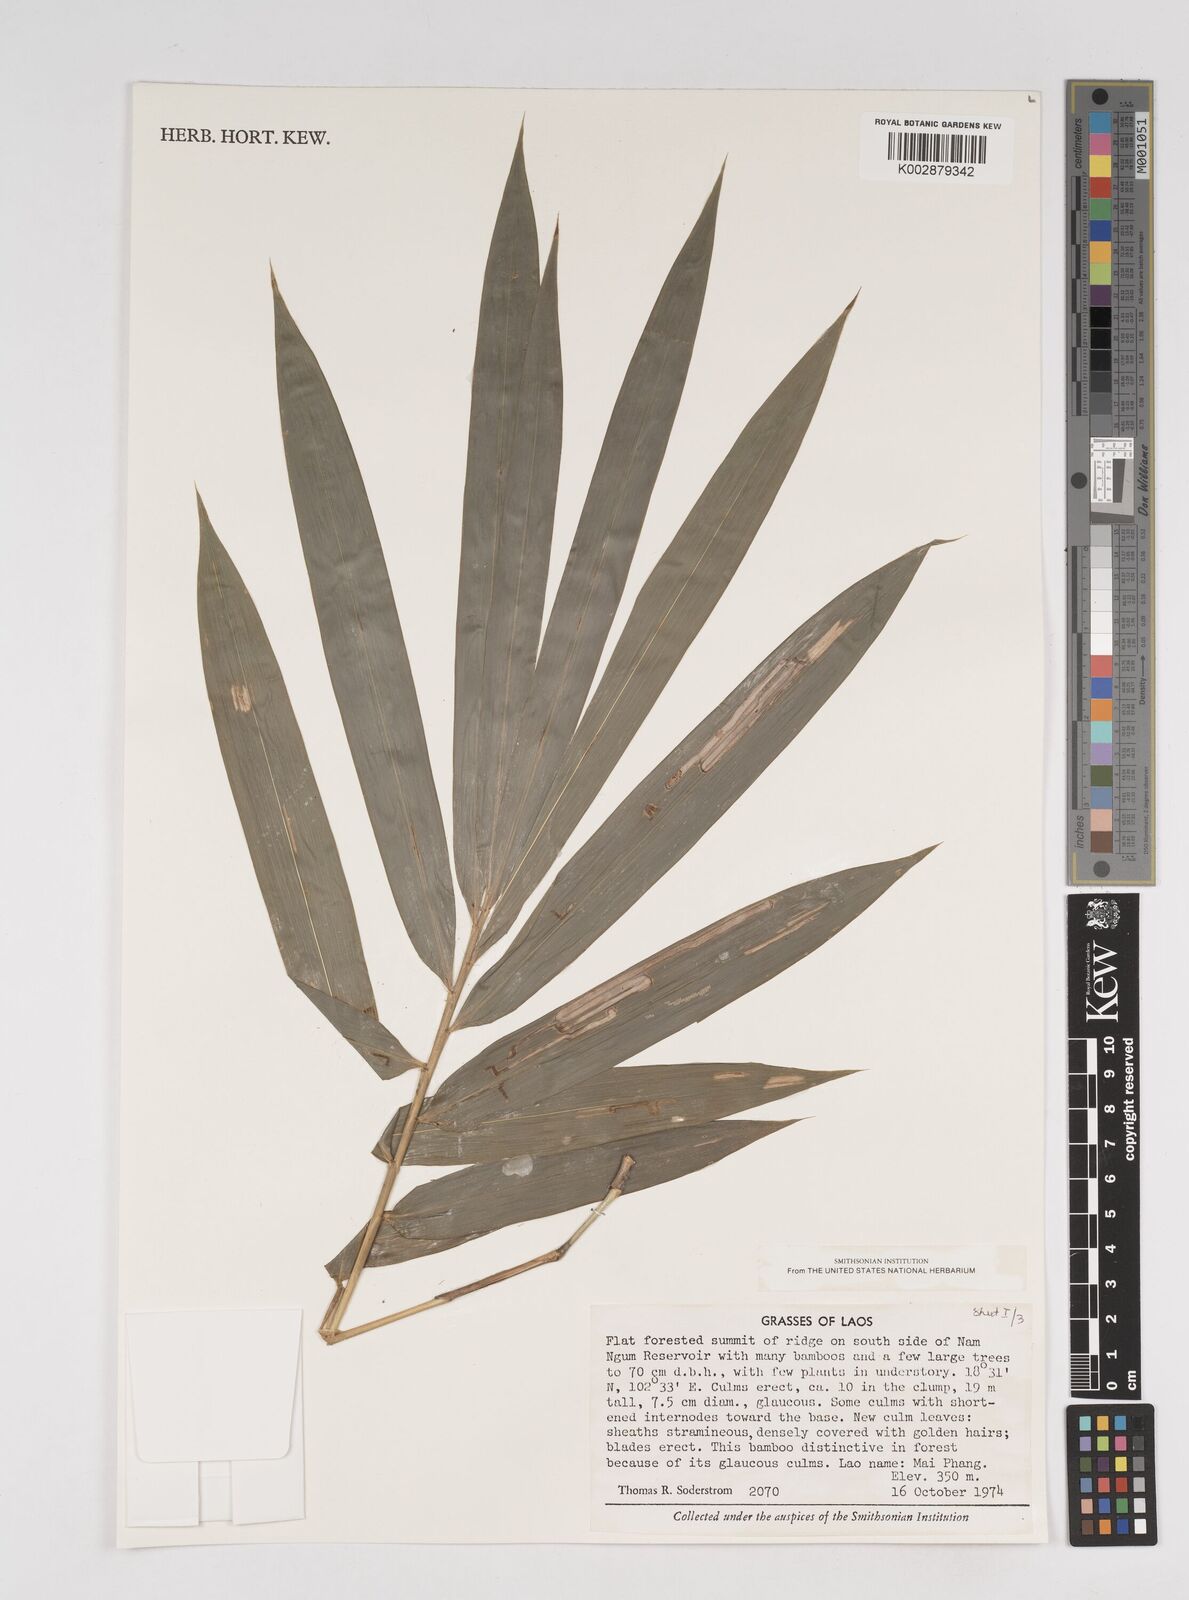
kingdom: Plantae
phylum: Tracheophyta
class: Liliopsida
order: Poales
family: Poaceae
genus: Dendrocalamus
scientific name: Dendrocalamus
